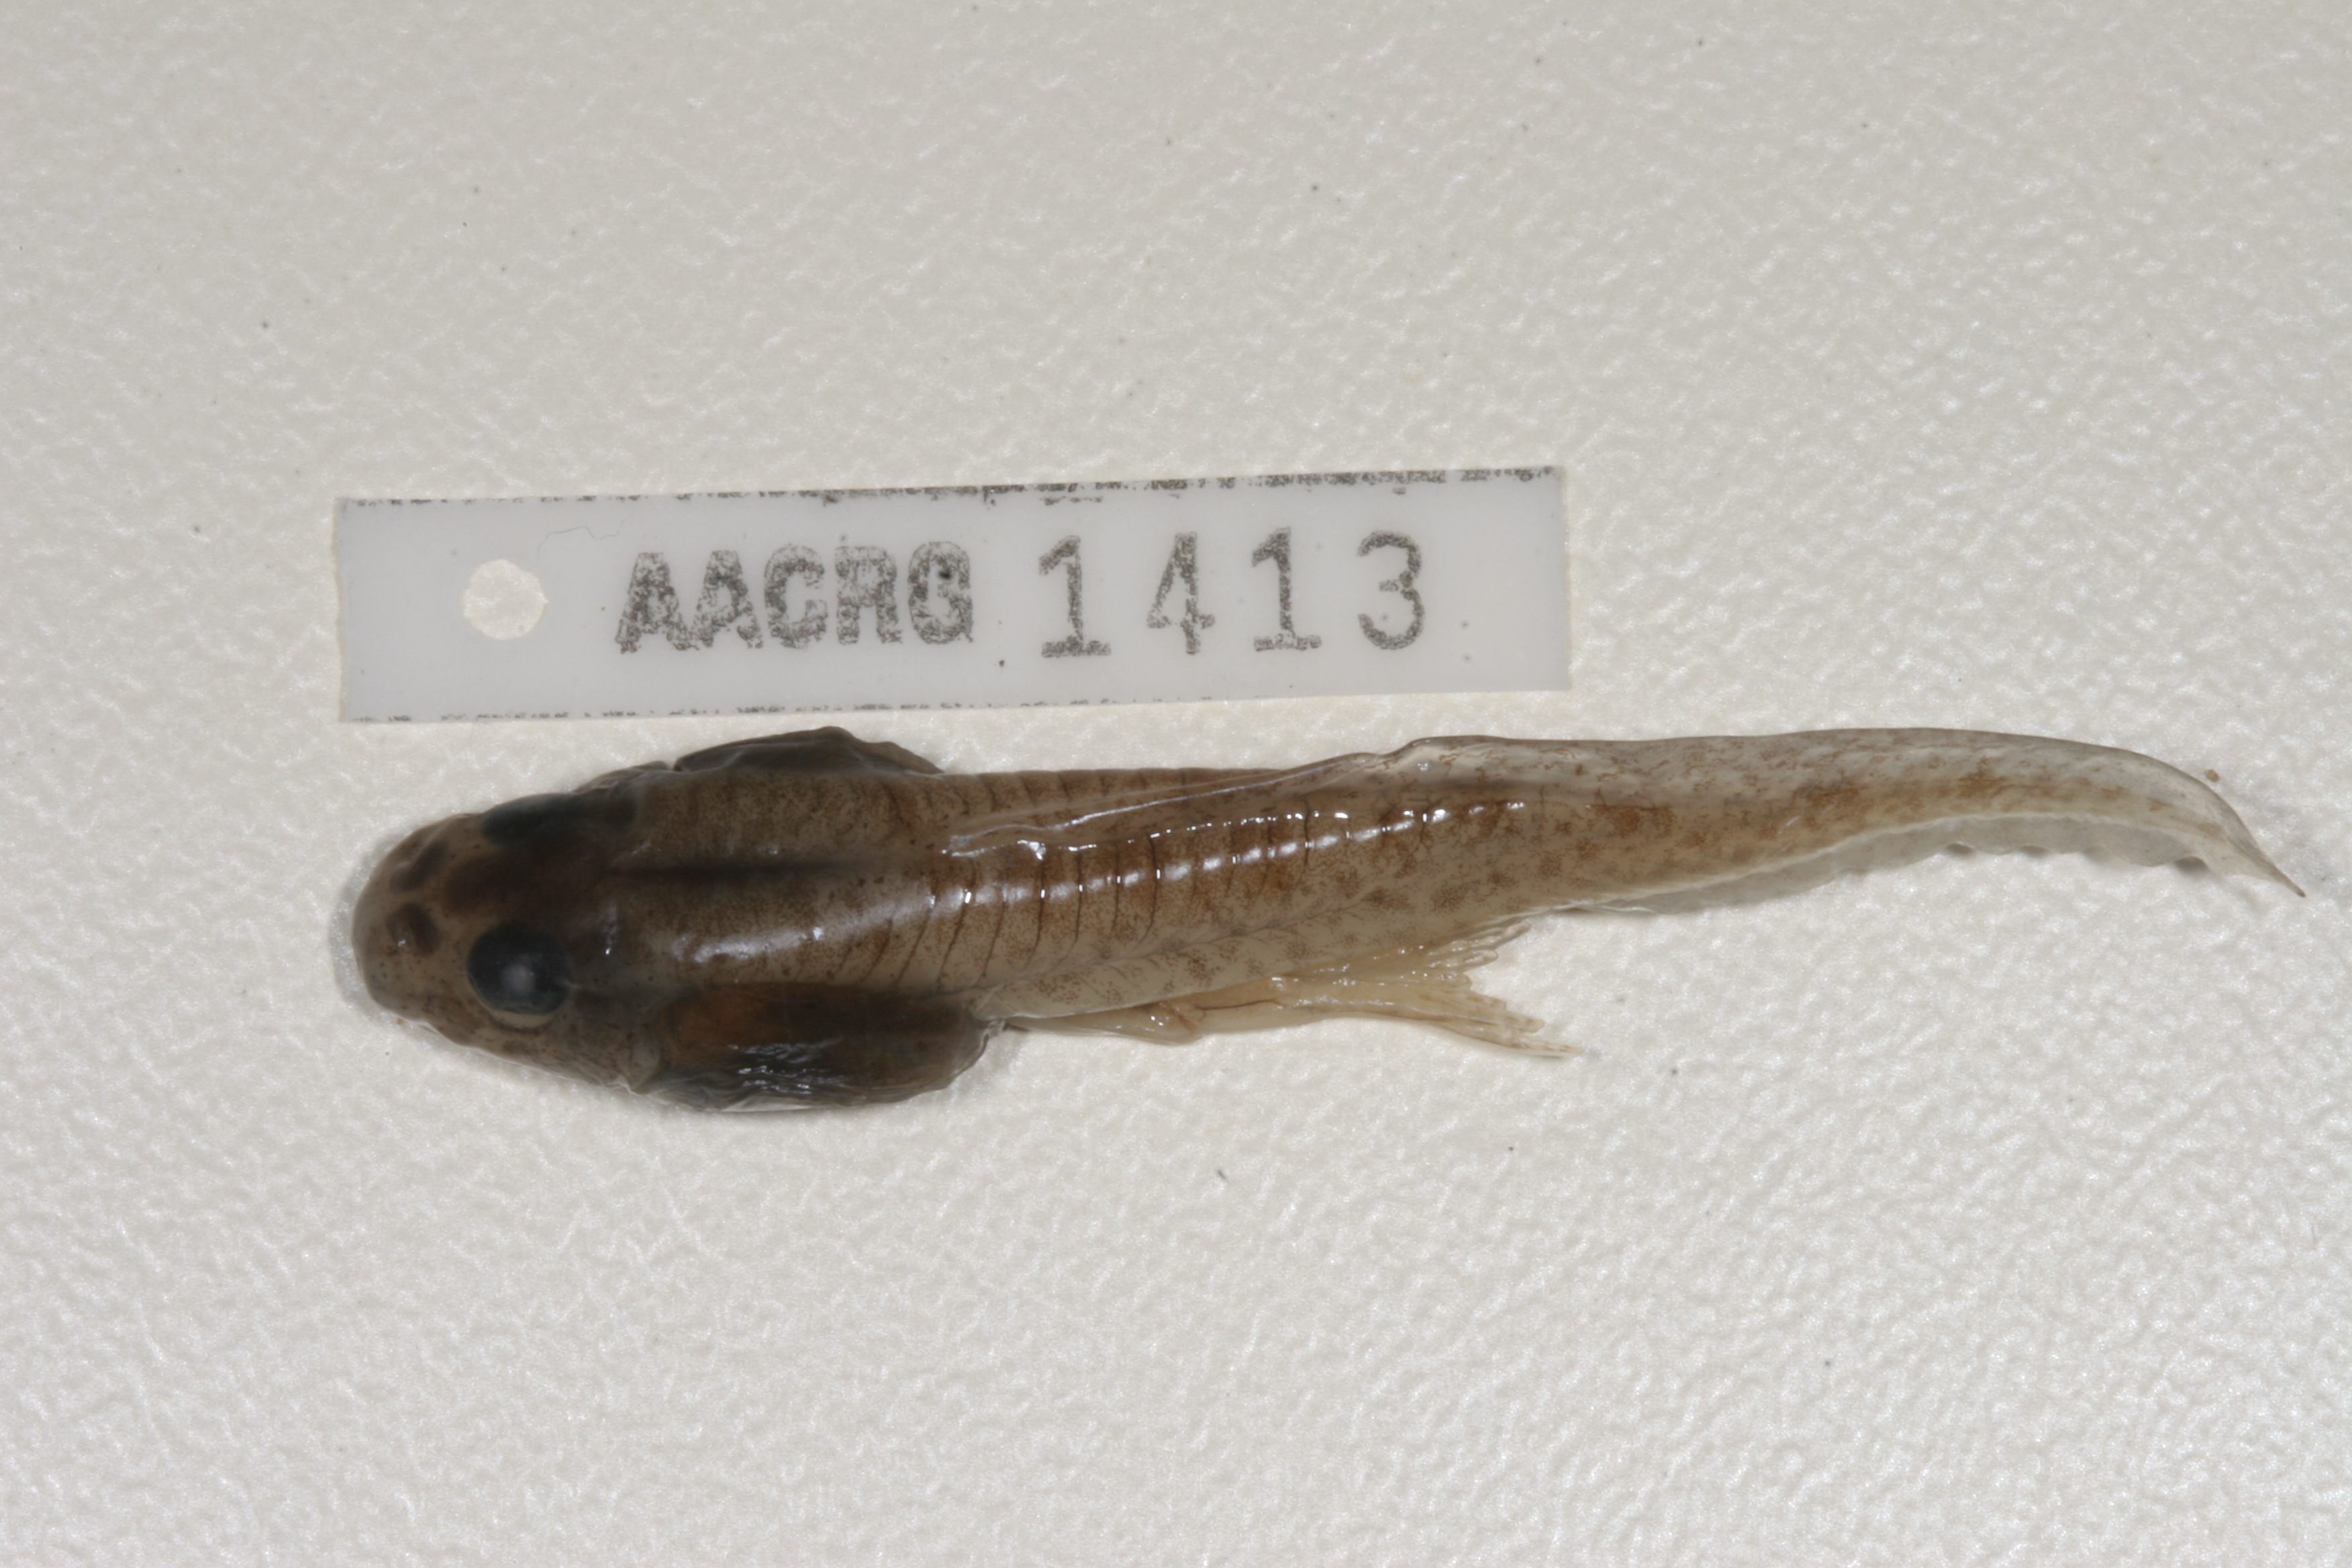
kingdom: Animalia
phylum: Chordata
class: Amphibia
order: Anura
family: Pyxicephalidae
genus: Amietia
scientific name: Amietia angolensis
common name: Dusky-throated frog
